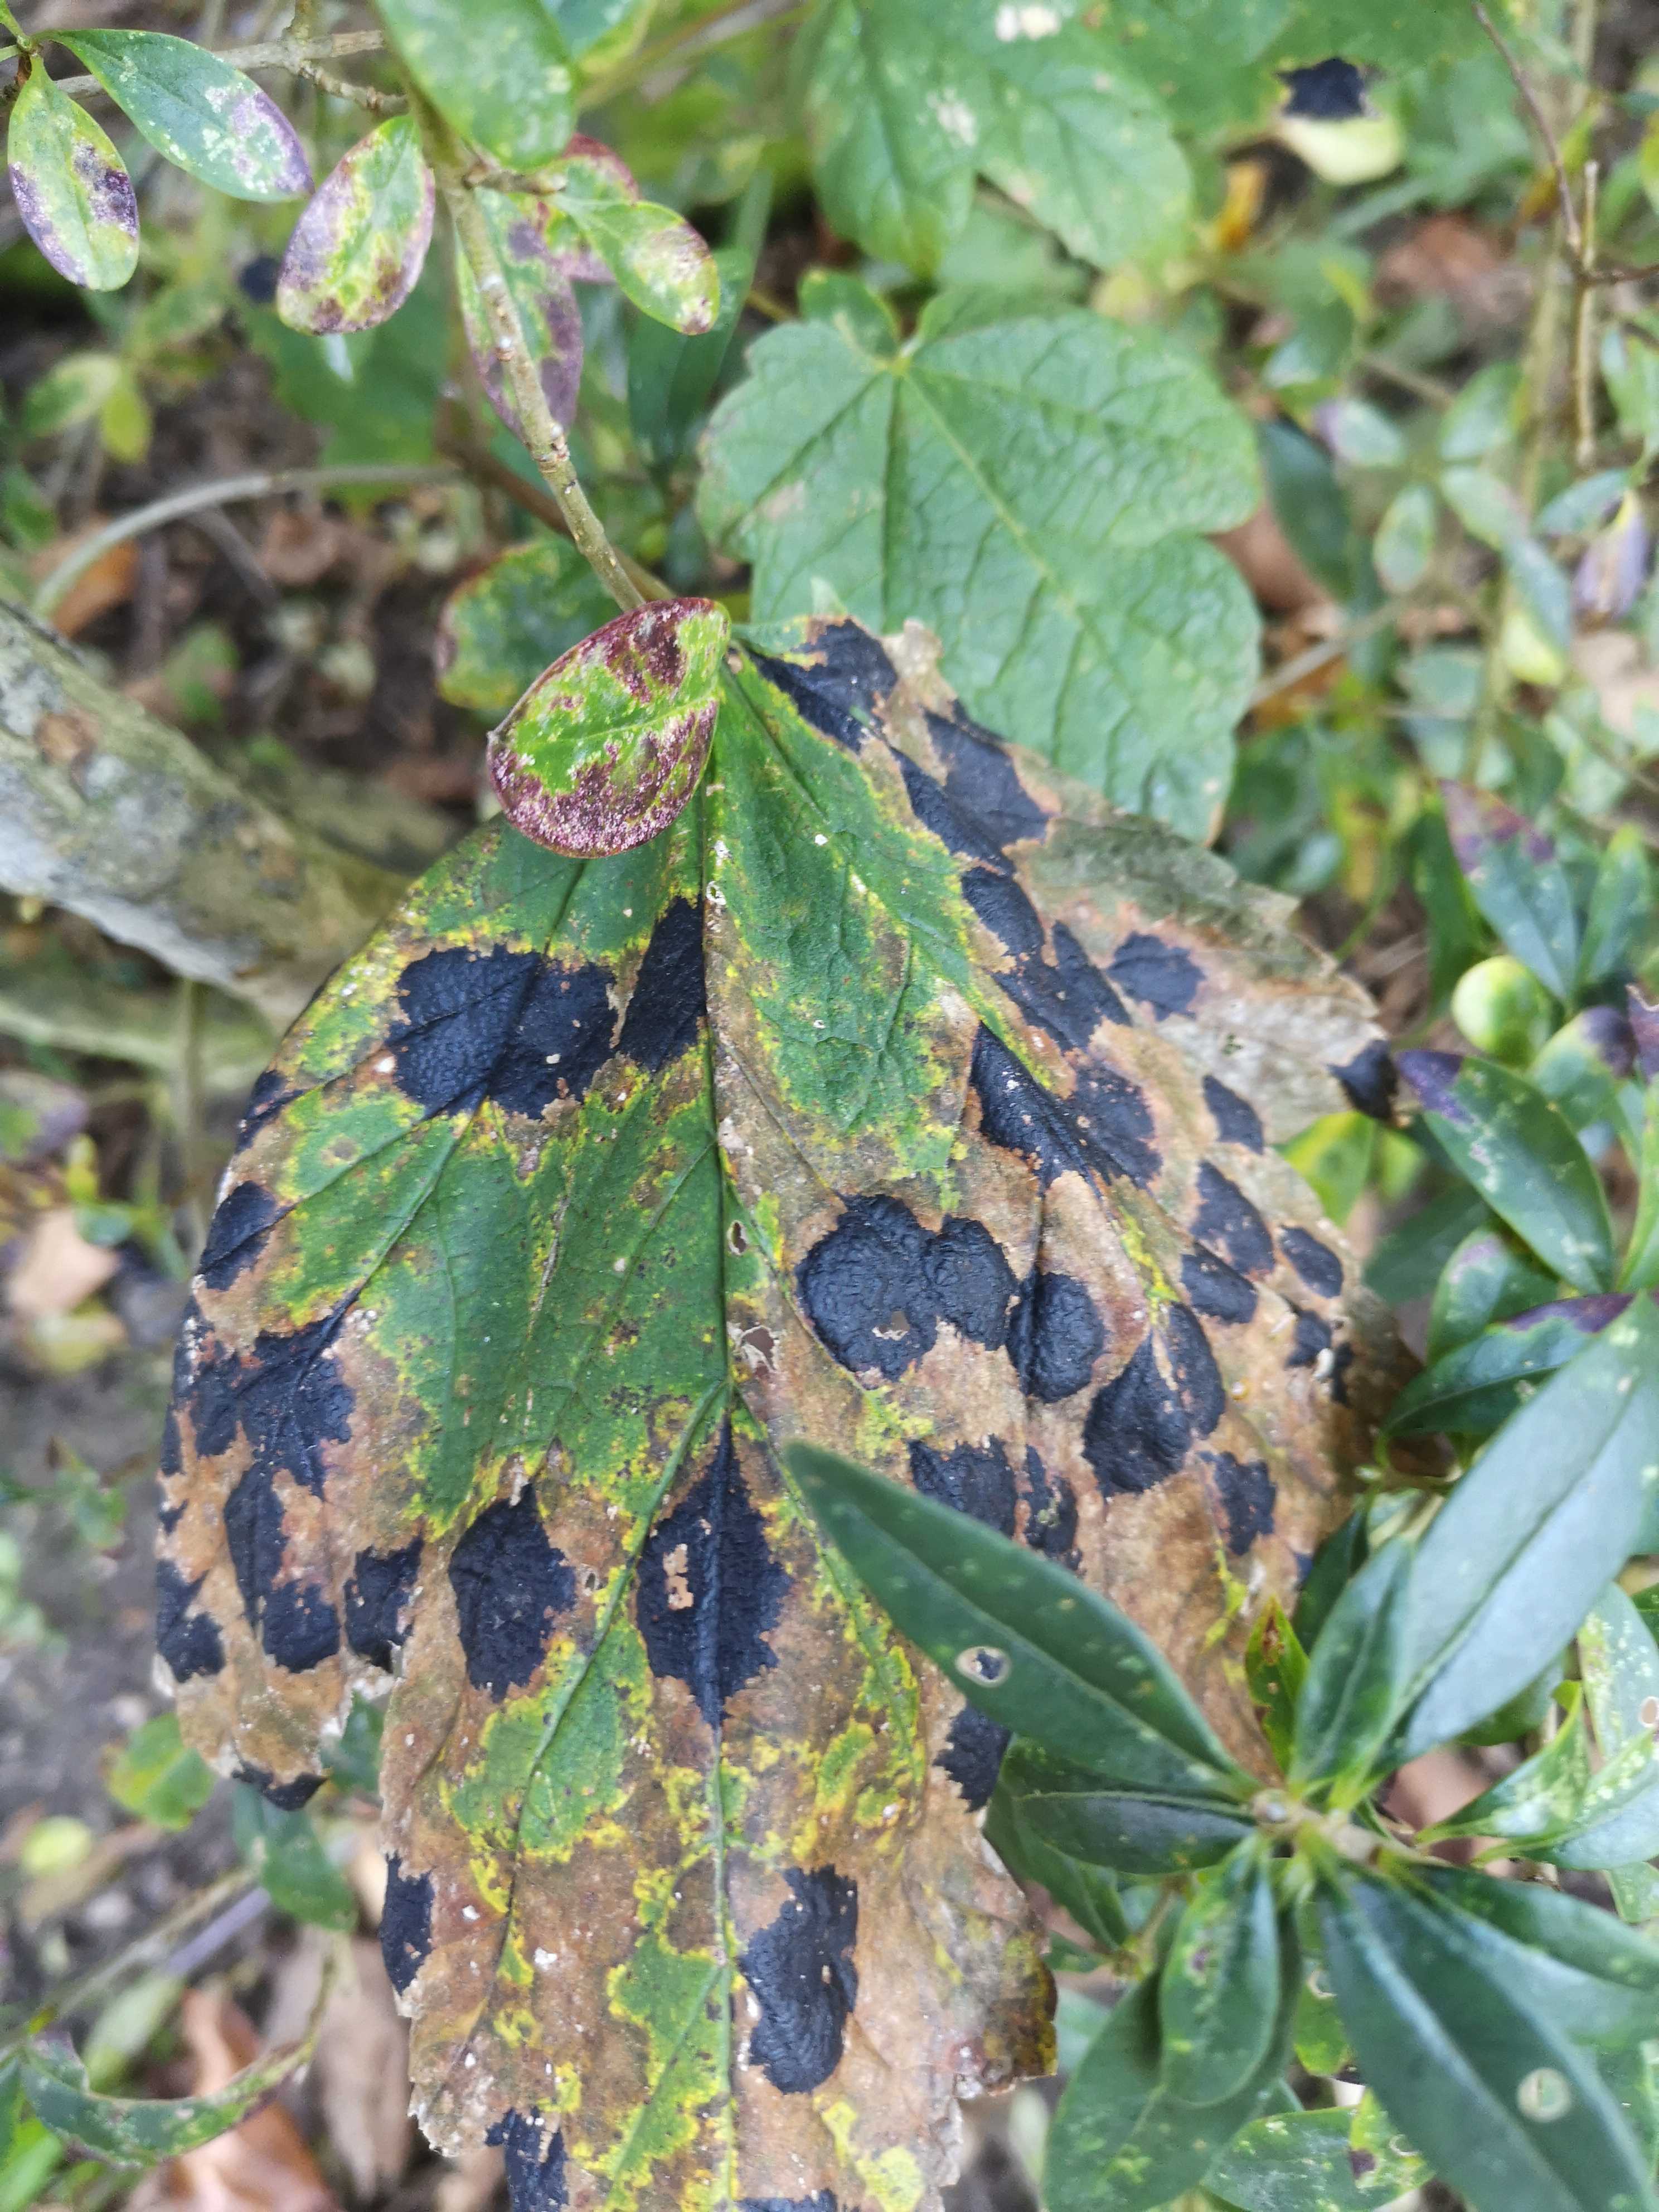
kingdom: Fungi
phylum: Ascomycota
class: Leotiomycetes
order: Rhytismatales
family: Rhytismataceae
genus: Rhytisma
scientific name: Rhytisma acerinum
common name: ahorn-rynkeplet
